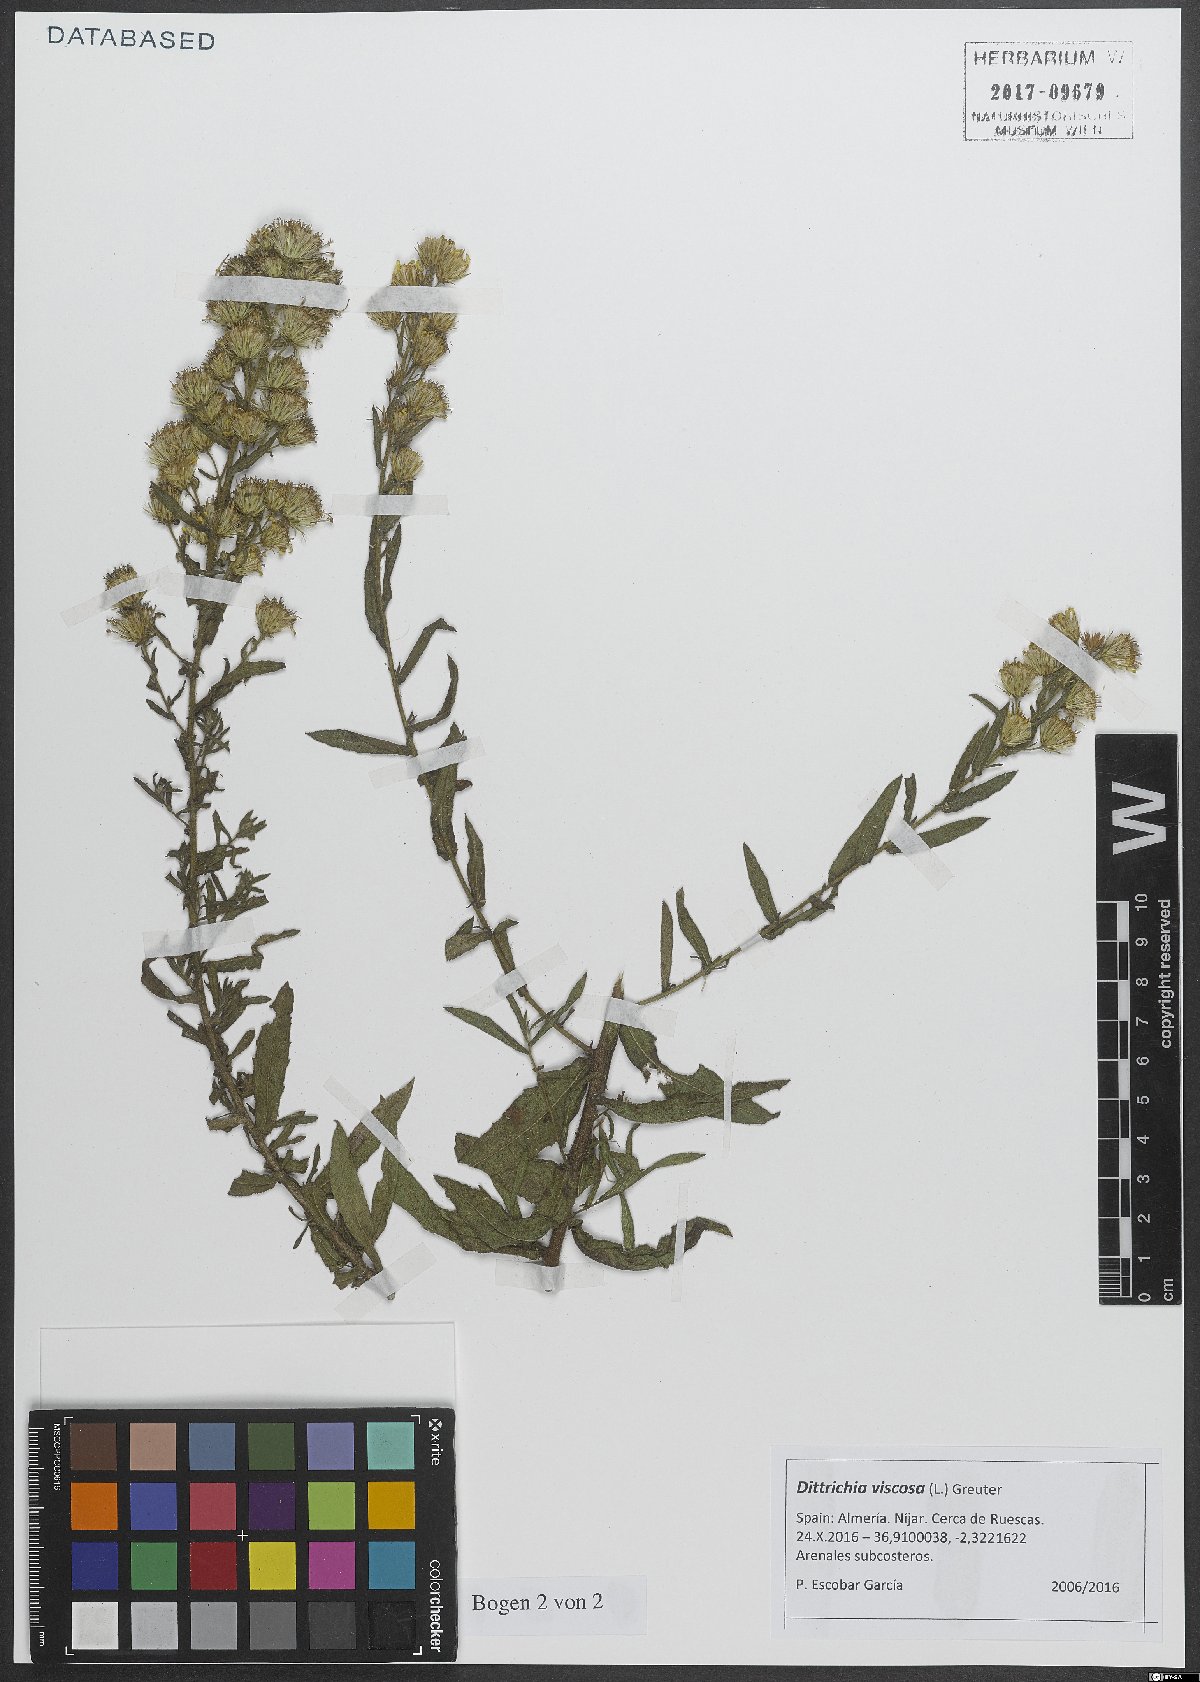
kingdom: Plantae
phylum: Tracheophyta
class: Magnoliopsida
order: Asterales
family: Asteraceae
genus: Dittrichia
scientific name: Dittrichia viscosa
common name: Woody fleabane
